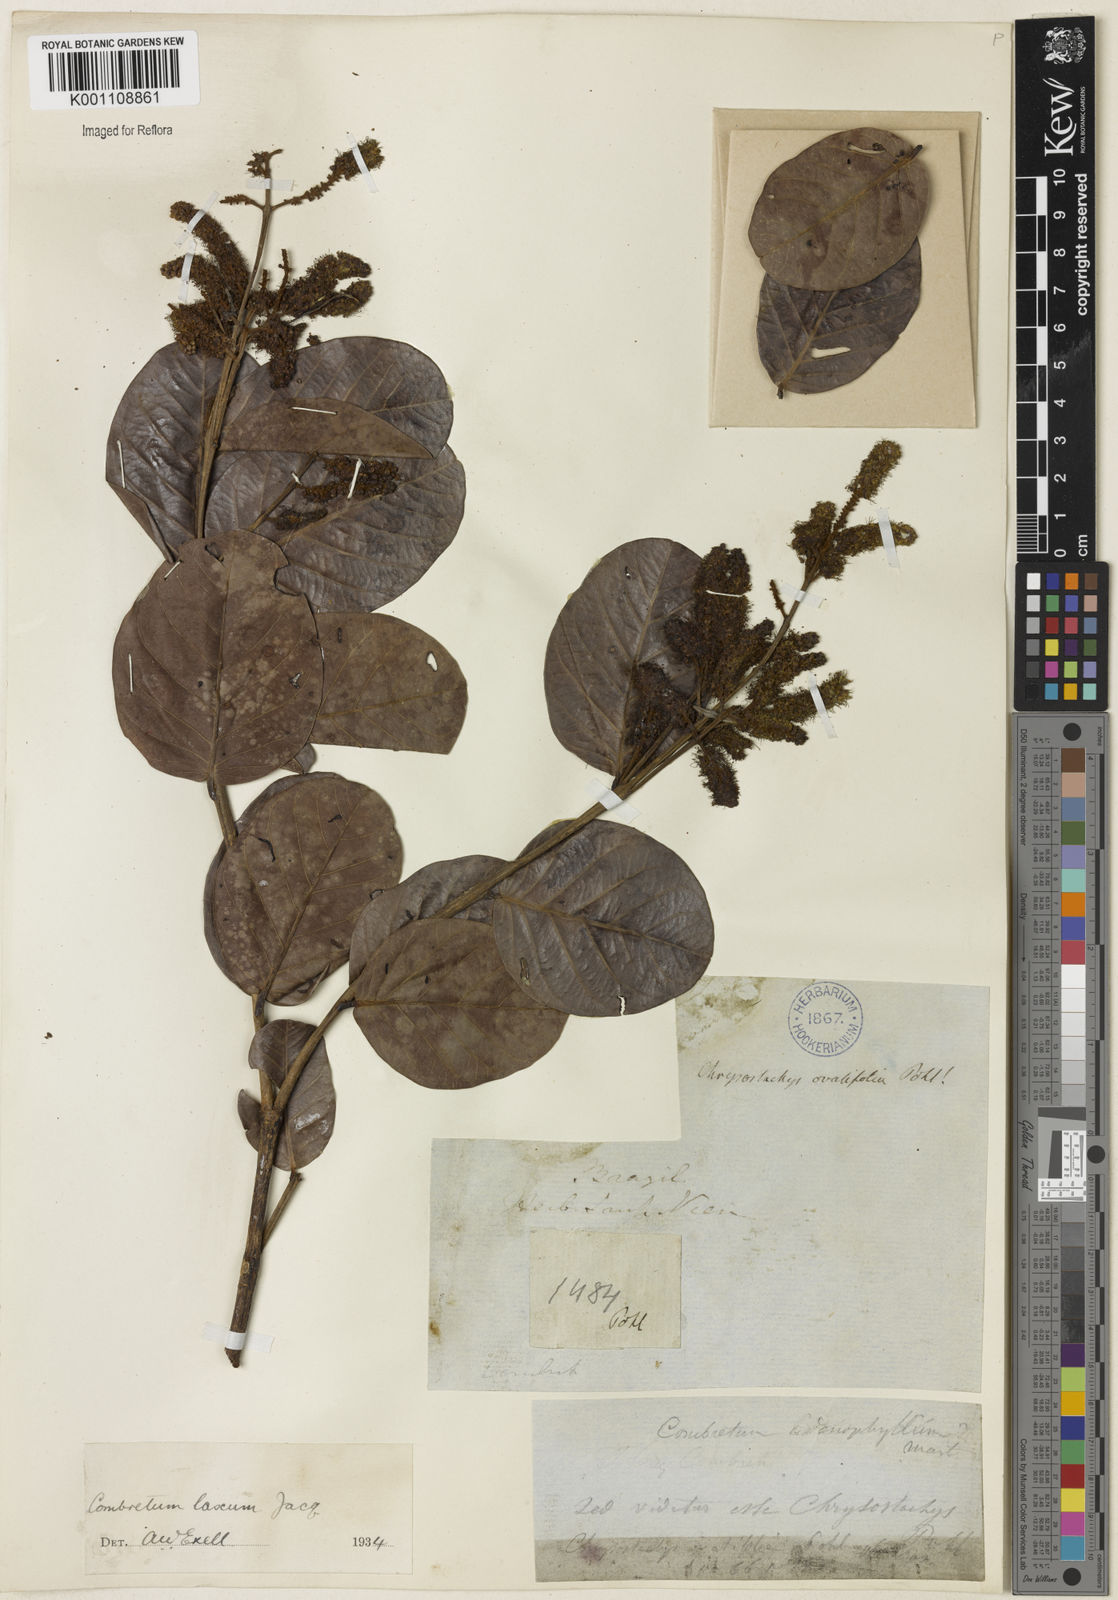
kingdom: Plantae
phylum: Tracheophyta
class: Magnoliopsida
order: Myrtales
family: Combretaceae
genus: Combretum
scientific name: Combretum laxum
